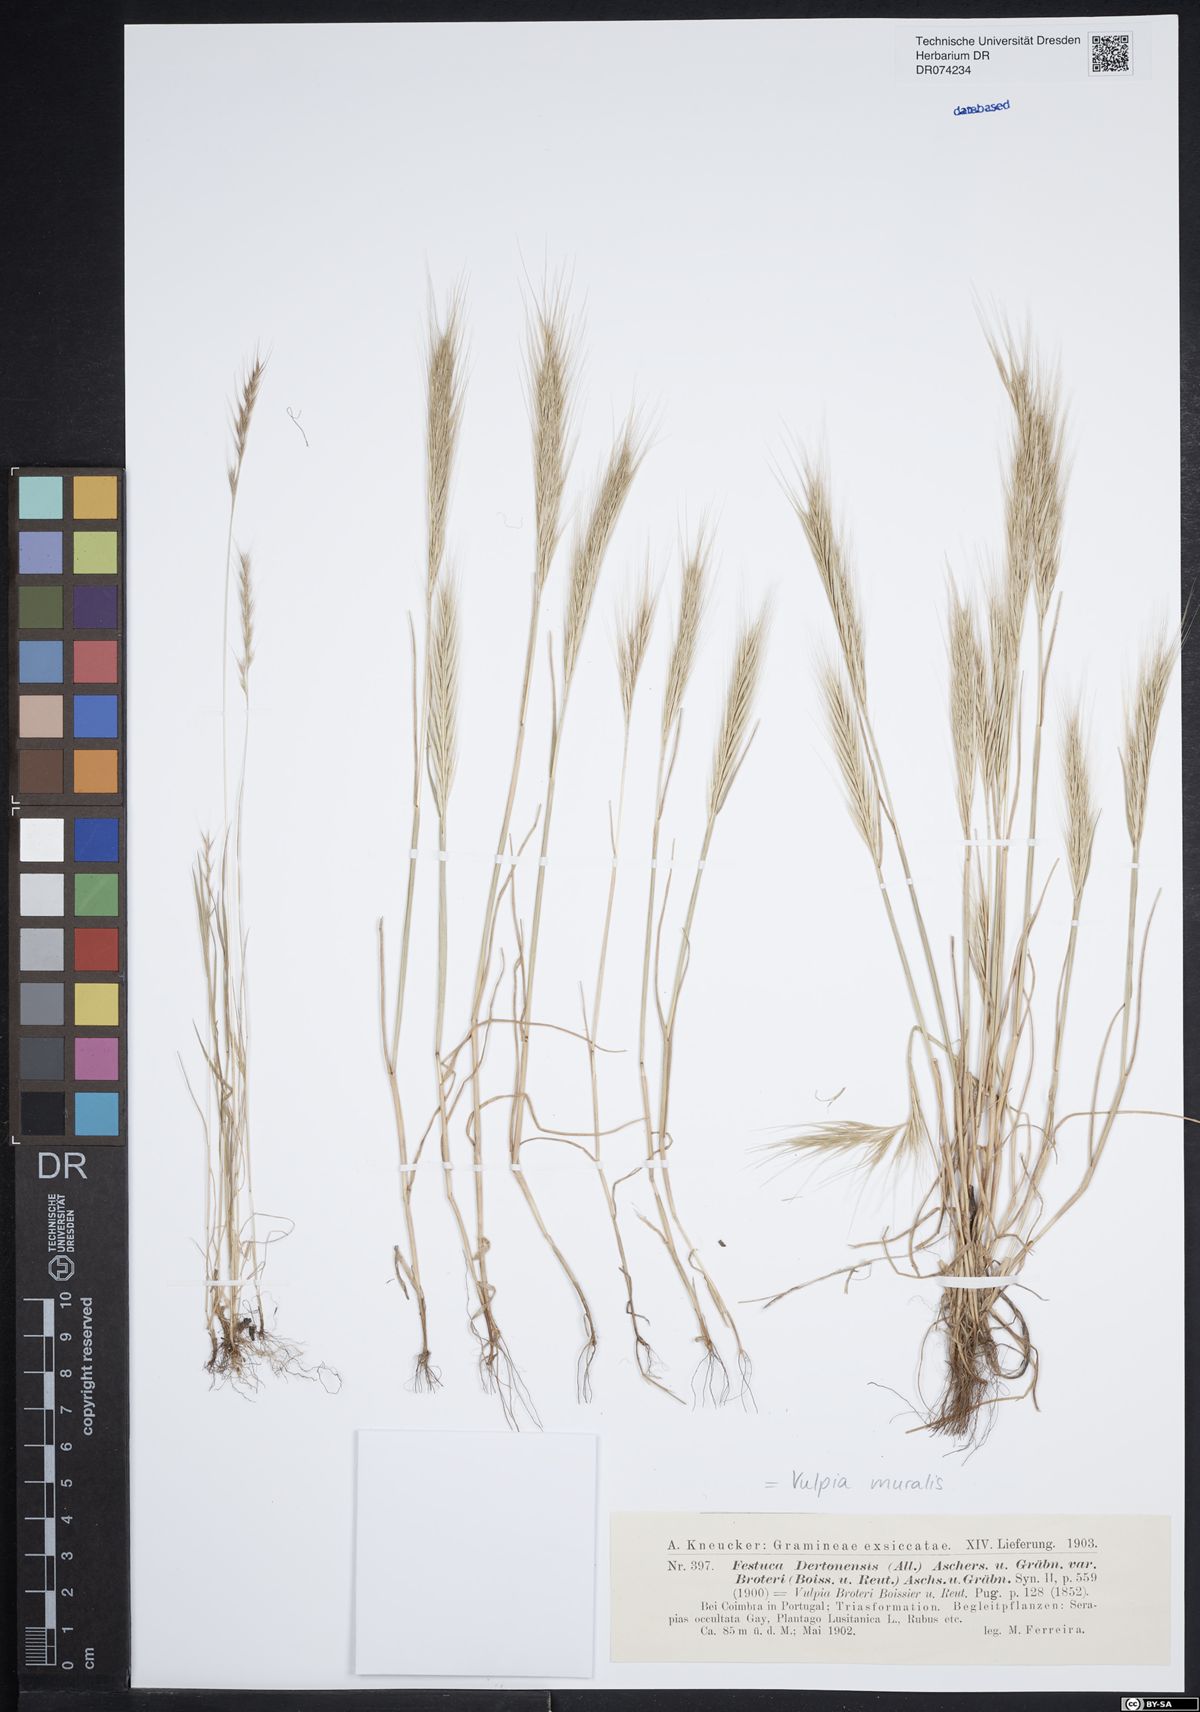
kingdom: Plantae
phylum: Tracheophyta
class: Liliopsida
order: Poales
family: Poaceae
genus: Festuca
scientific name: Festuca muralis
